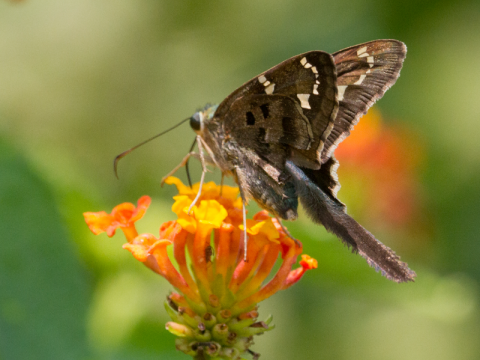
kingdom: Animalia
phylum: Arthropoda
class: Insecta
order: Lepidoptera
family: Hesperiidae
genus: Urbanus
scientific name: Urbanus proteus
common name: Long-tailed Skipper
